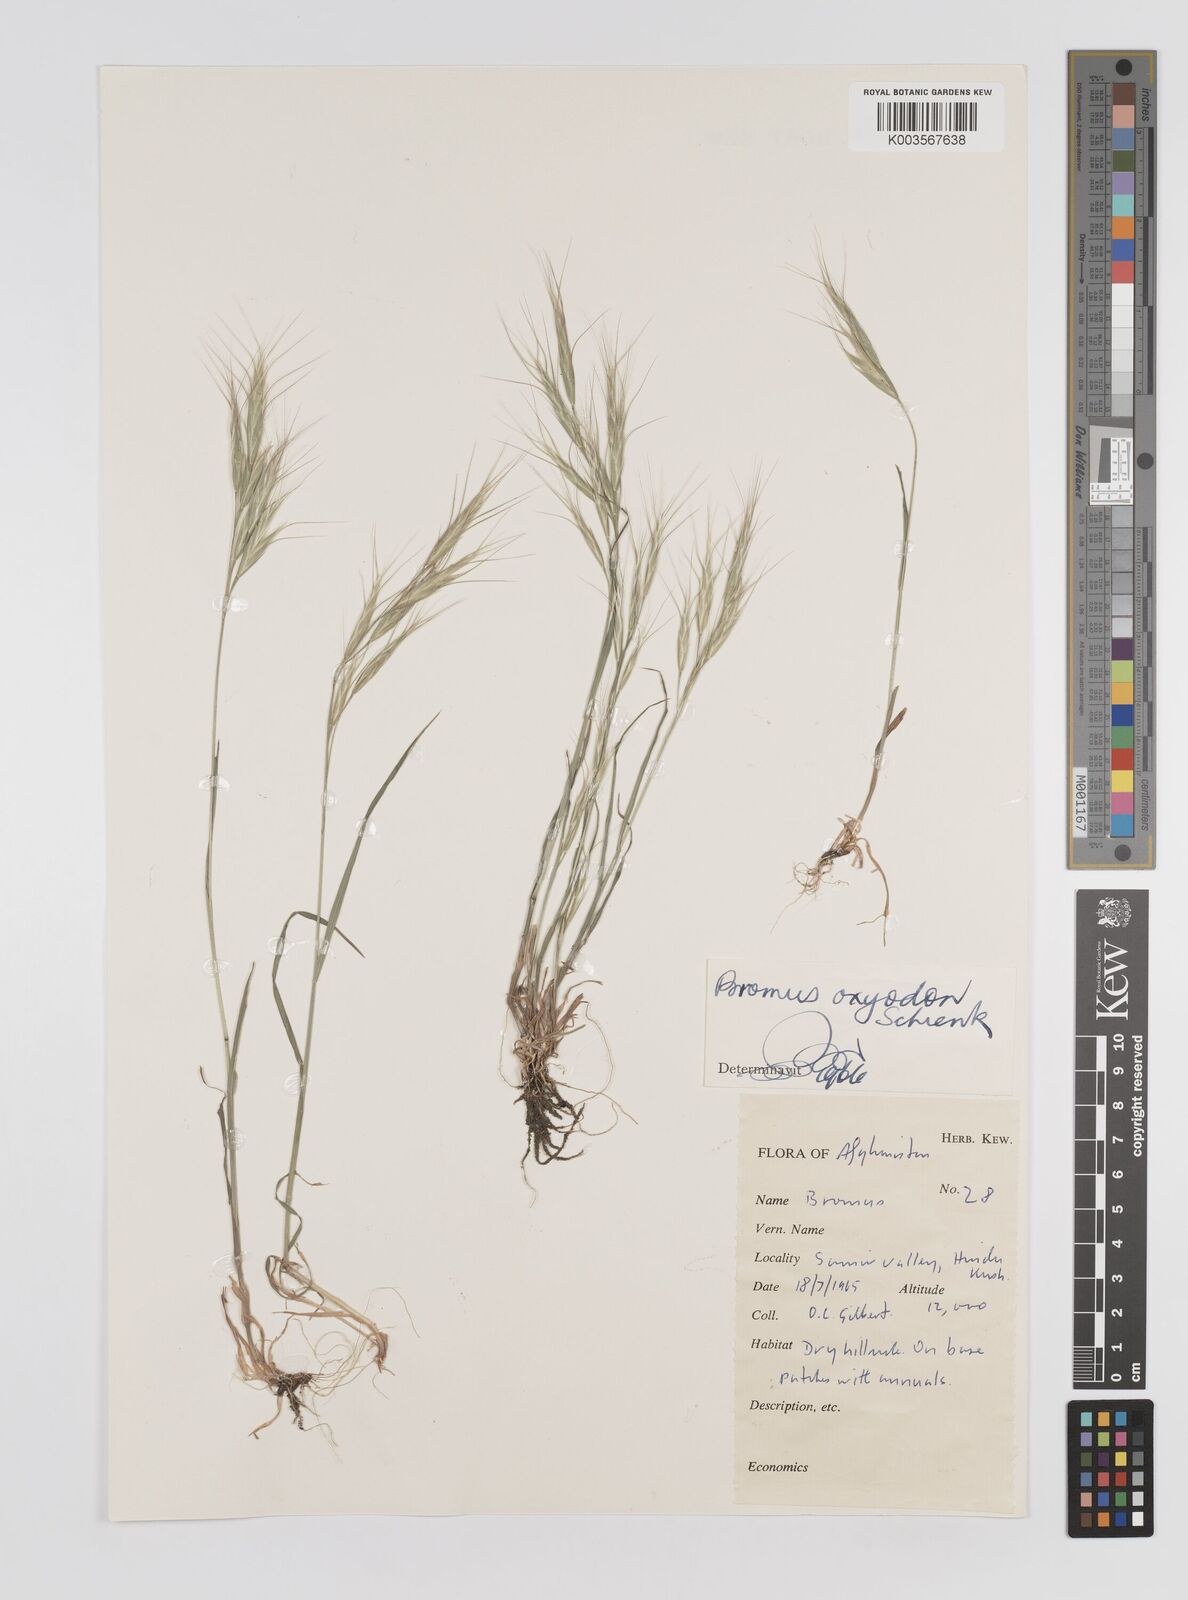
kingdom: Plantae
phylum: Tracheophyta
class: Liliopsida
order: Poales
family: Poaceae
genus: Bromus
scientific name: Bromus oxyodon
